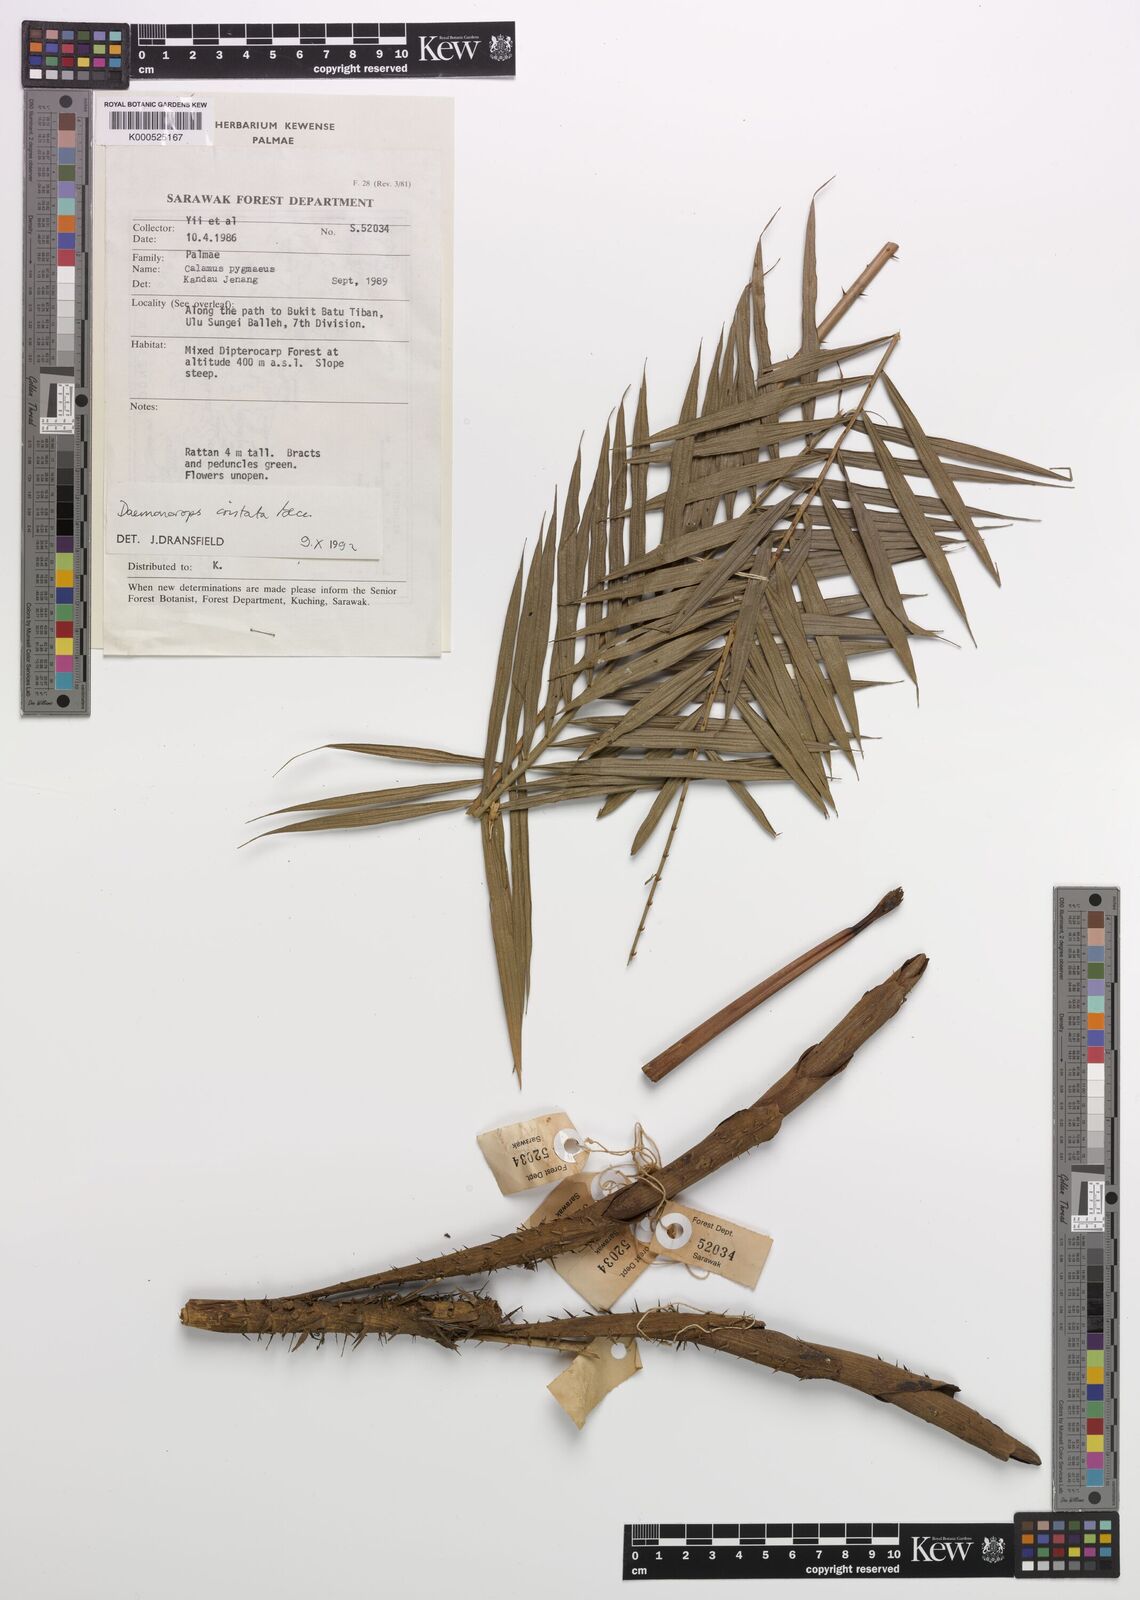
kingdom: Plantae
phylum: Tracheophyta
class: Liliopsida
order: Arecales
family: Arecaceae
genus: Calamus
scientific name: Calamus cristatus
